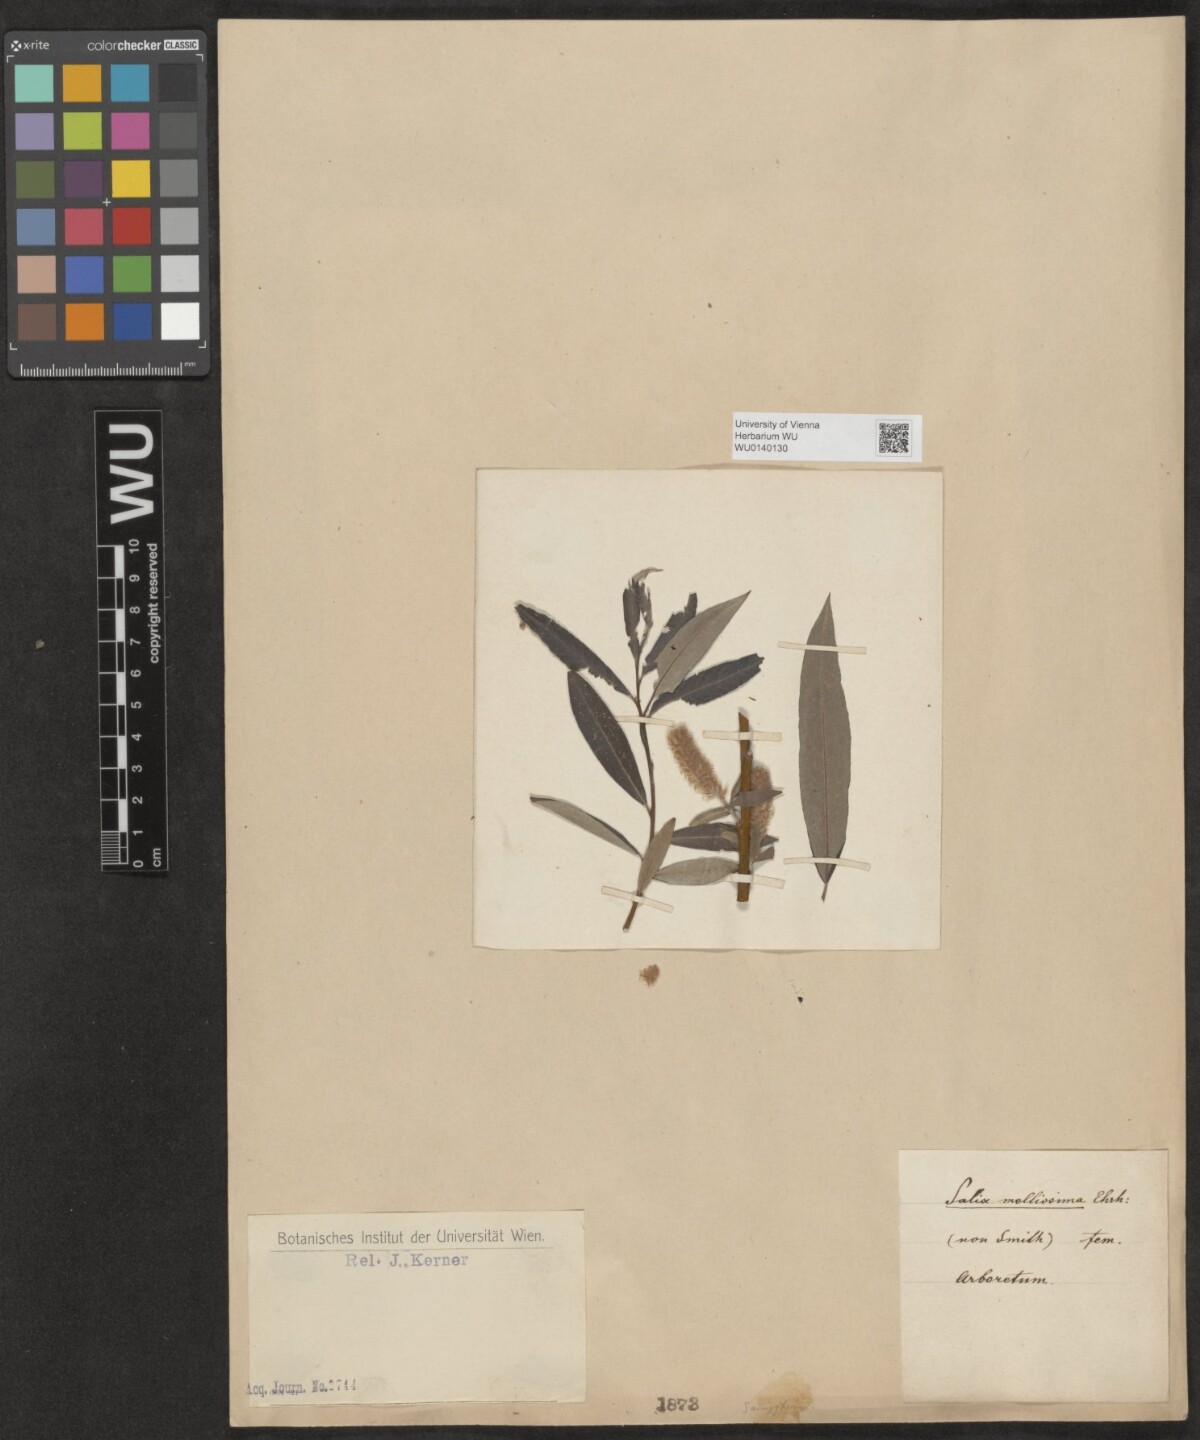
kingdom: Plantae
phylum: Tracheophyta
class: Magnoliopsida
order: Malpighiales
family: Salicaceae
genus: Salix
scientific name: Salix mollissima
